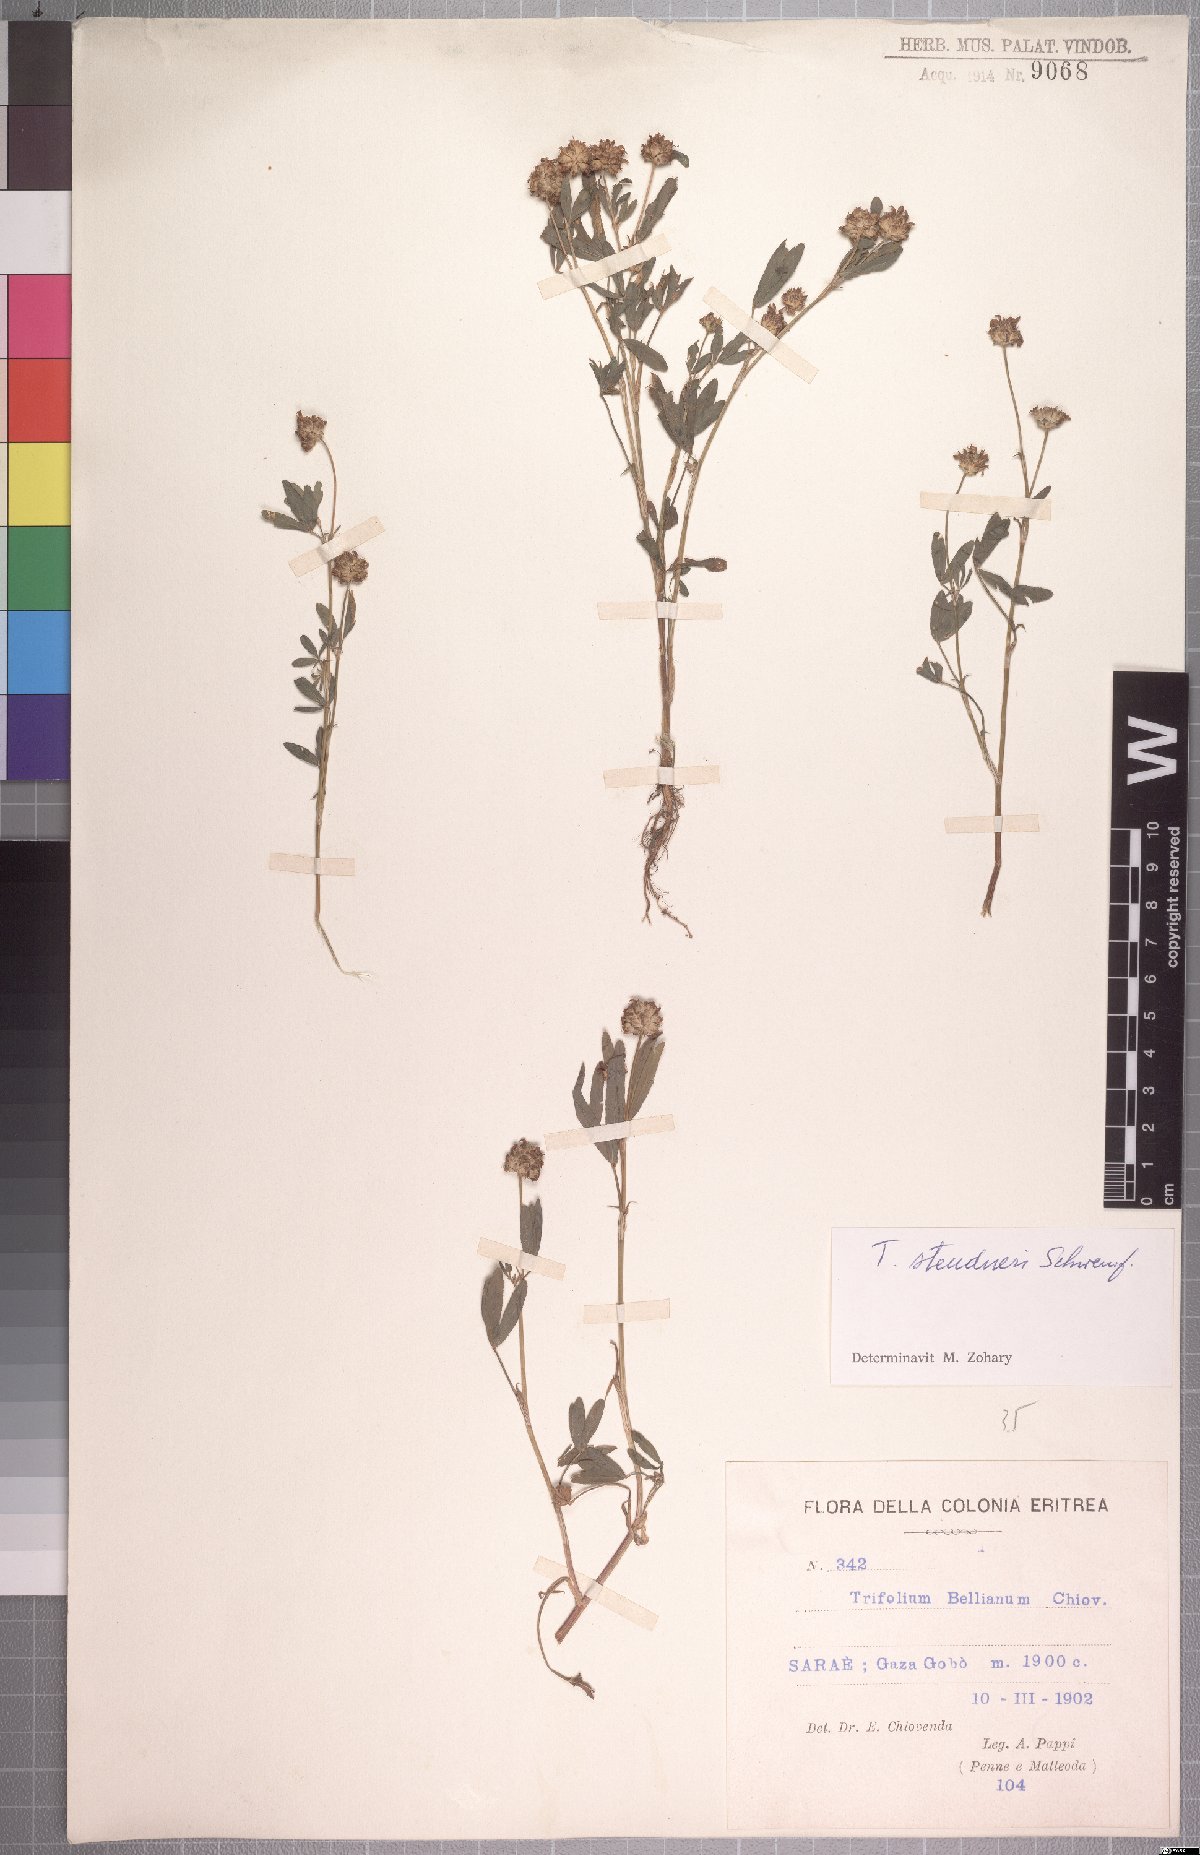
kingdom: Plantae
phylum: Tracheophyta
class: Magnoliopsida
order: Fabales
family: Fabaceae
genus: Trifolium
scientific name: Trifolium steudneri
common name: Steudner's clover
